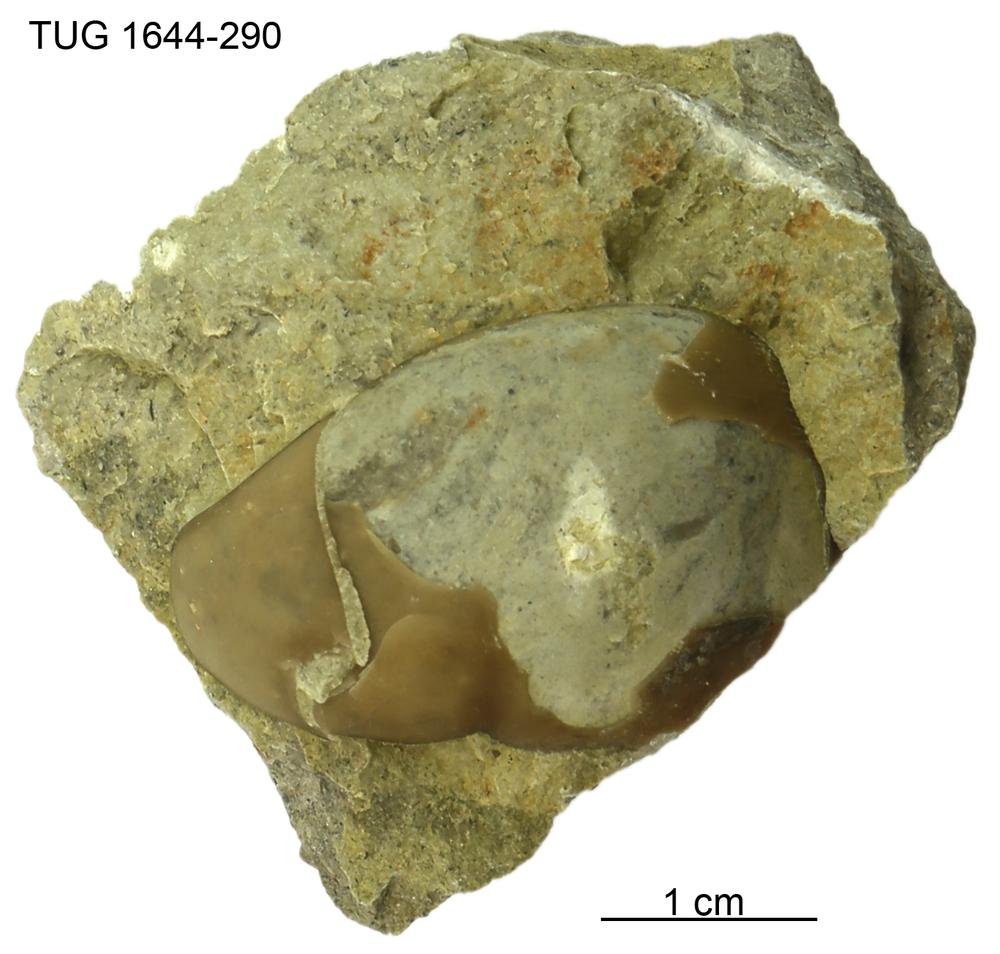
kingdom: Animalia
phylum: Arthropoda
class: Trilobita
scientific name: Trilobita
